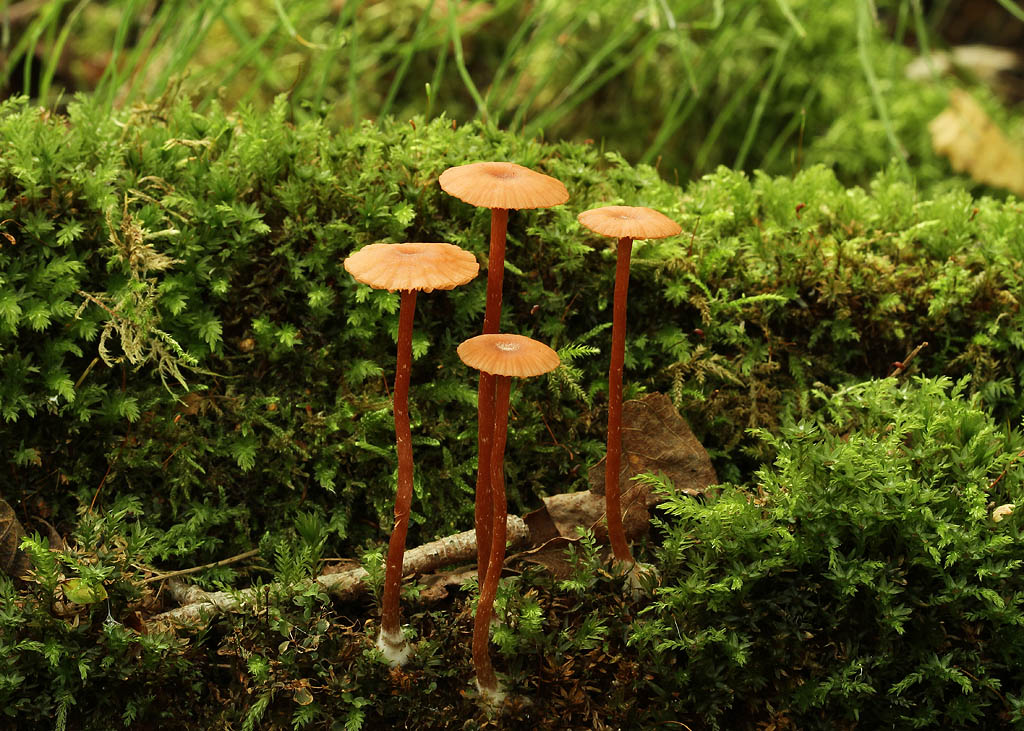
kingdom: Fungi
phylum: Basidiomycota
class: Agaricomycetes
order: Agaricales
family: Hydnangiaceae
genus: Laccaria
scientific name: Laccaria laccata
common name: rød ametysthat
